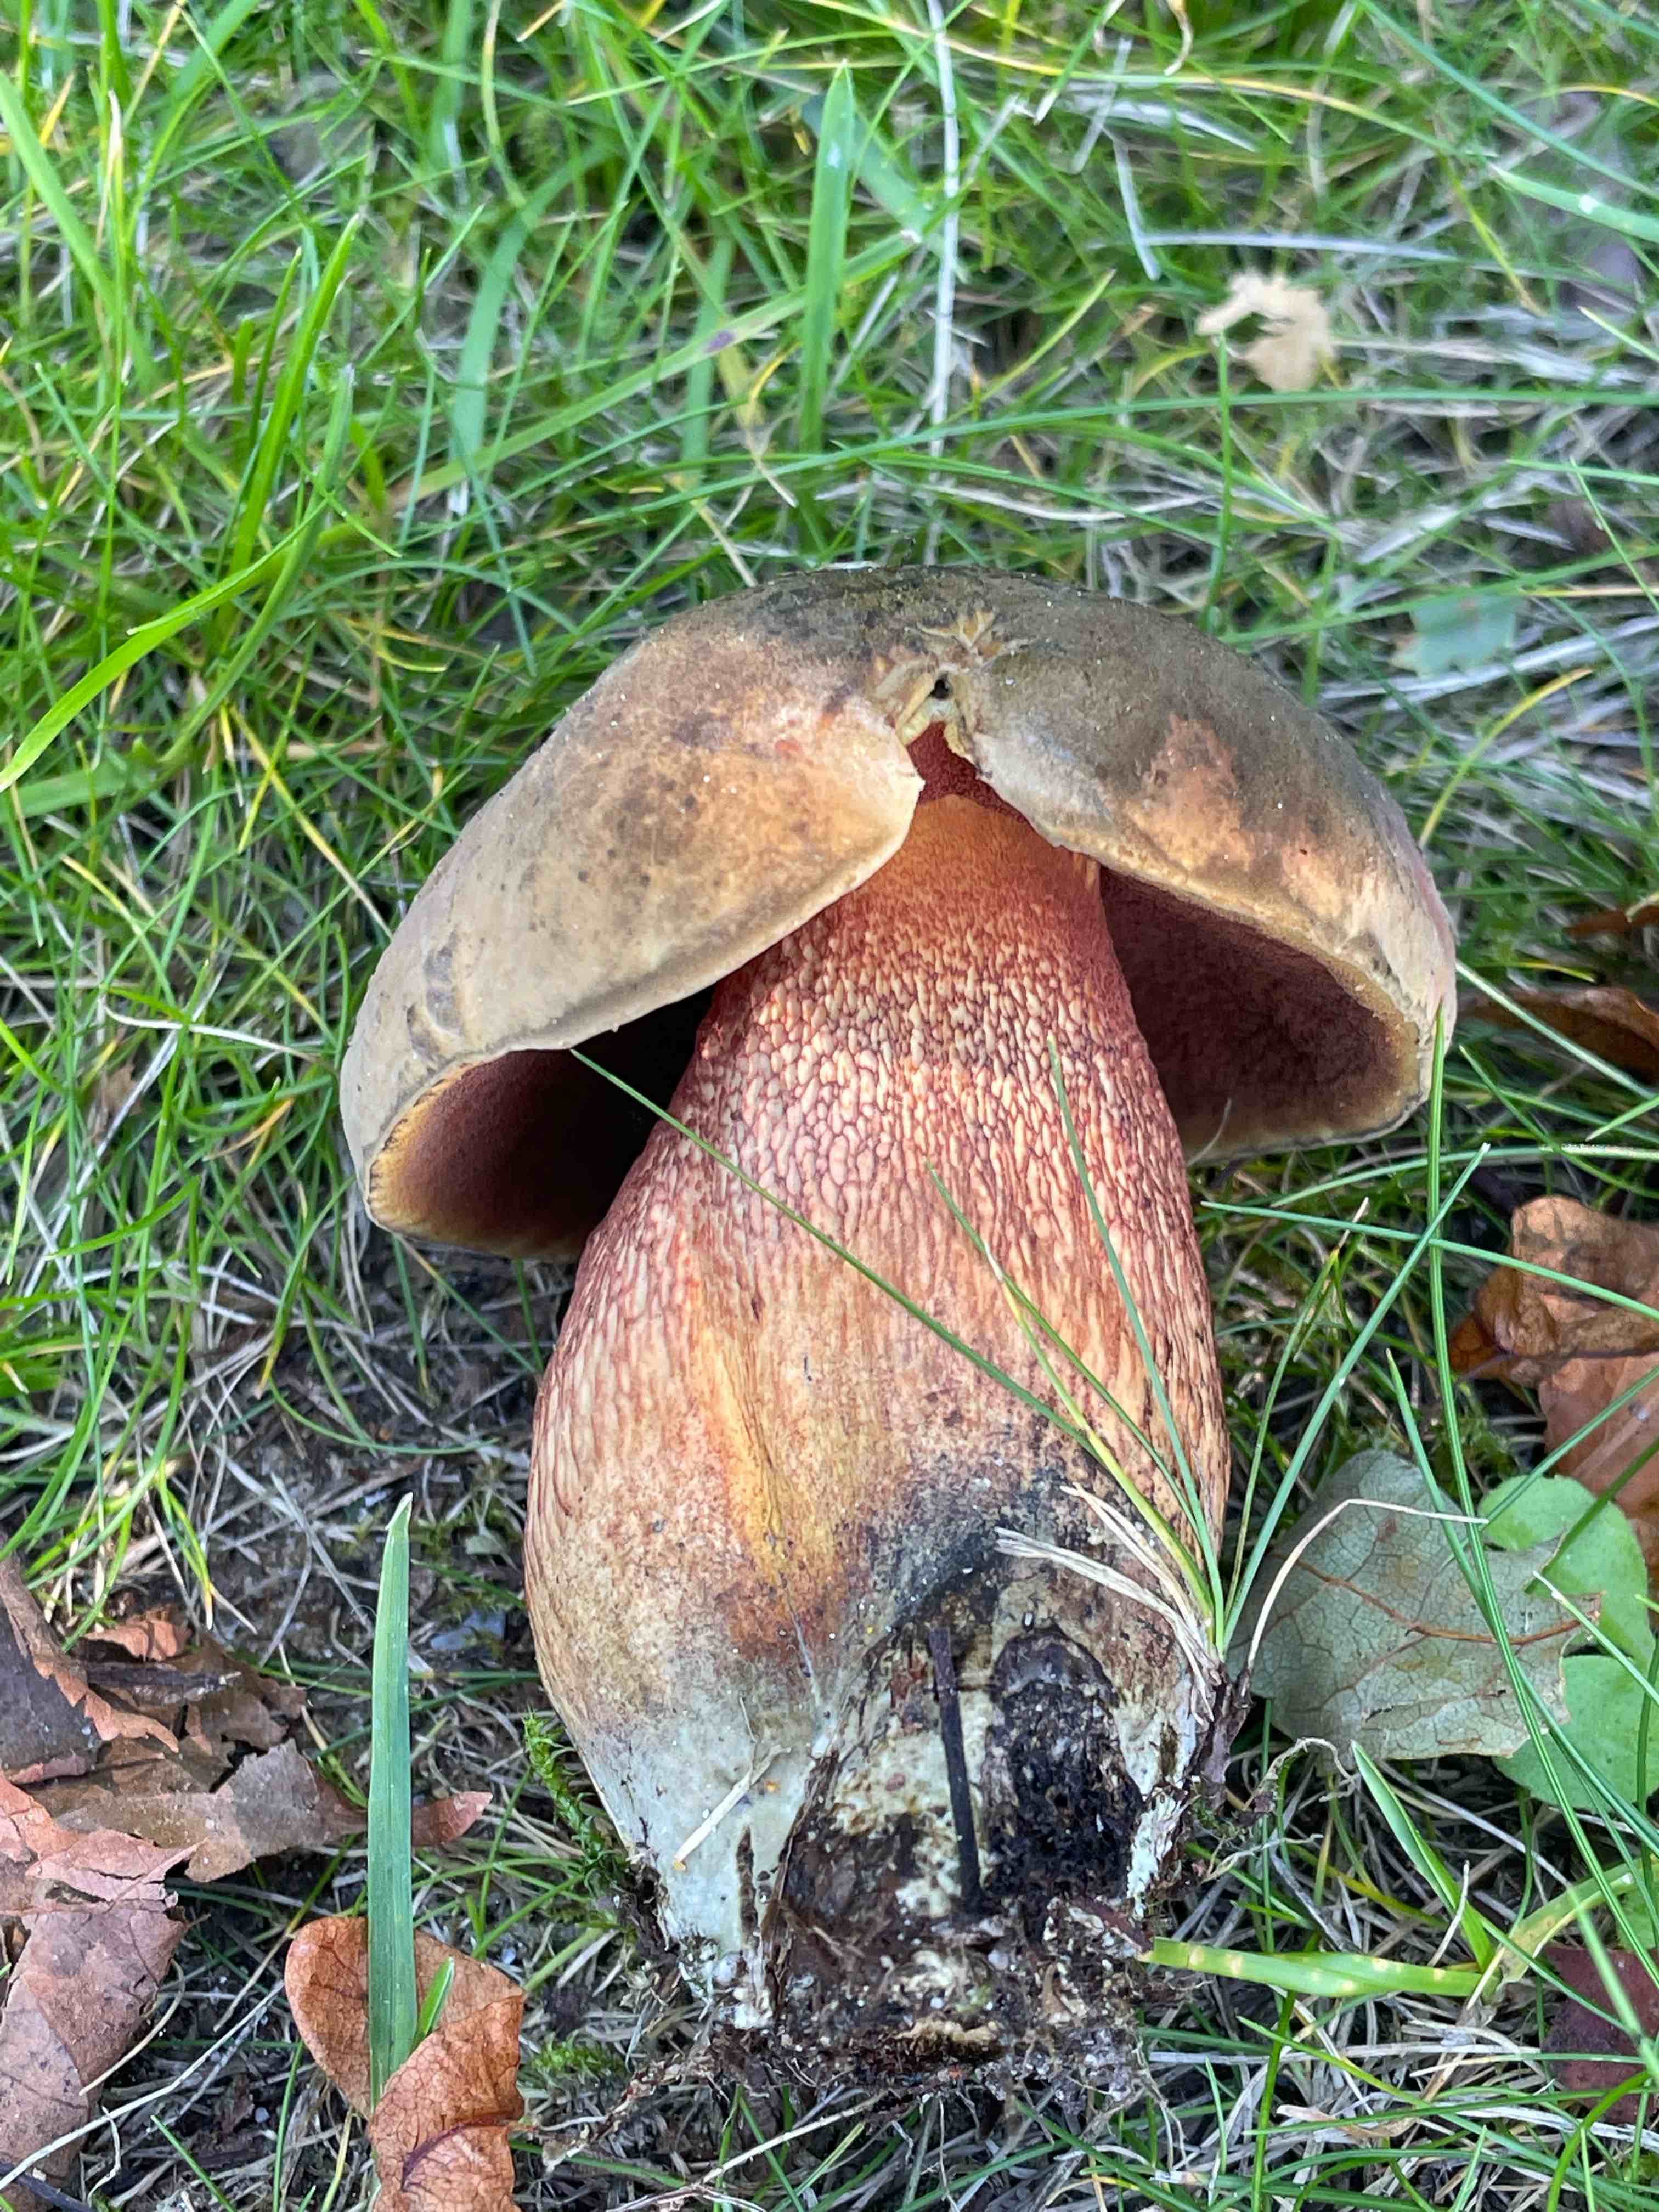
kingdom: Fungi
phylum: Basidiomycota
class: Agaricomycetes
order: Boletales
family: Boletaceae
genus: Suillellus
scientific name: Suillellus luridus
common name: netstokket indigorørhat
